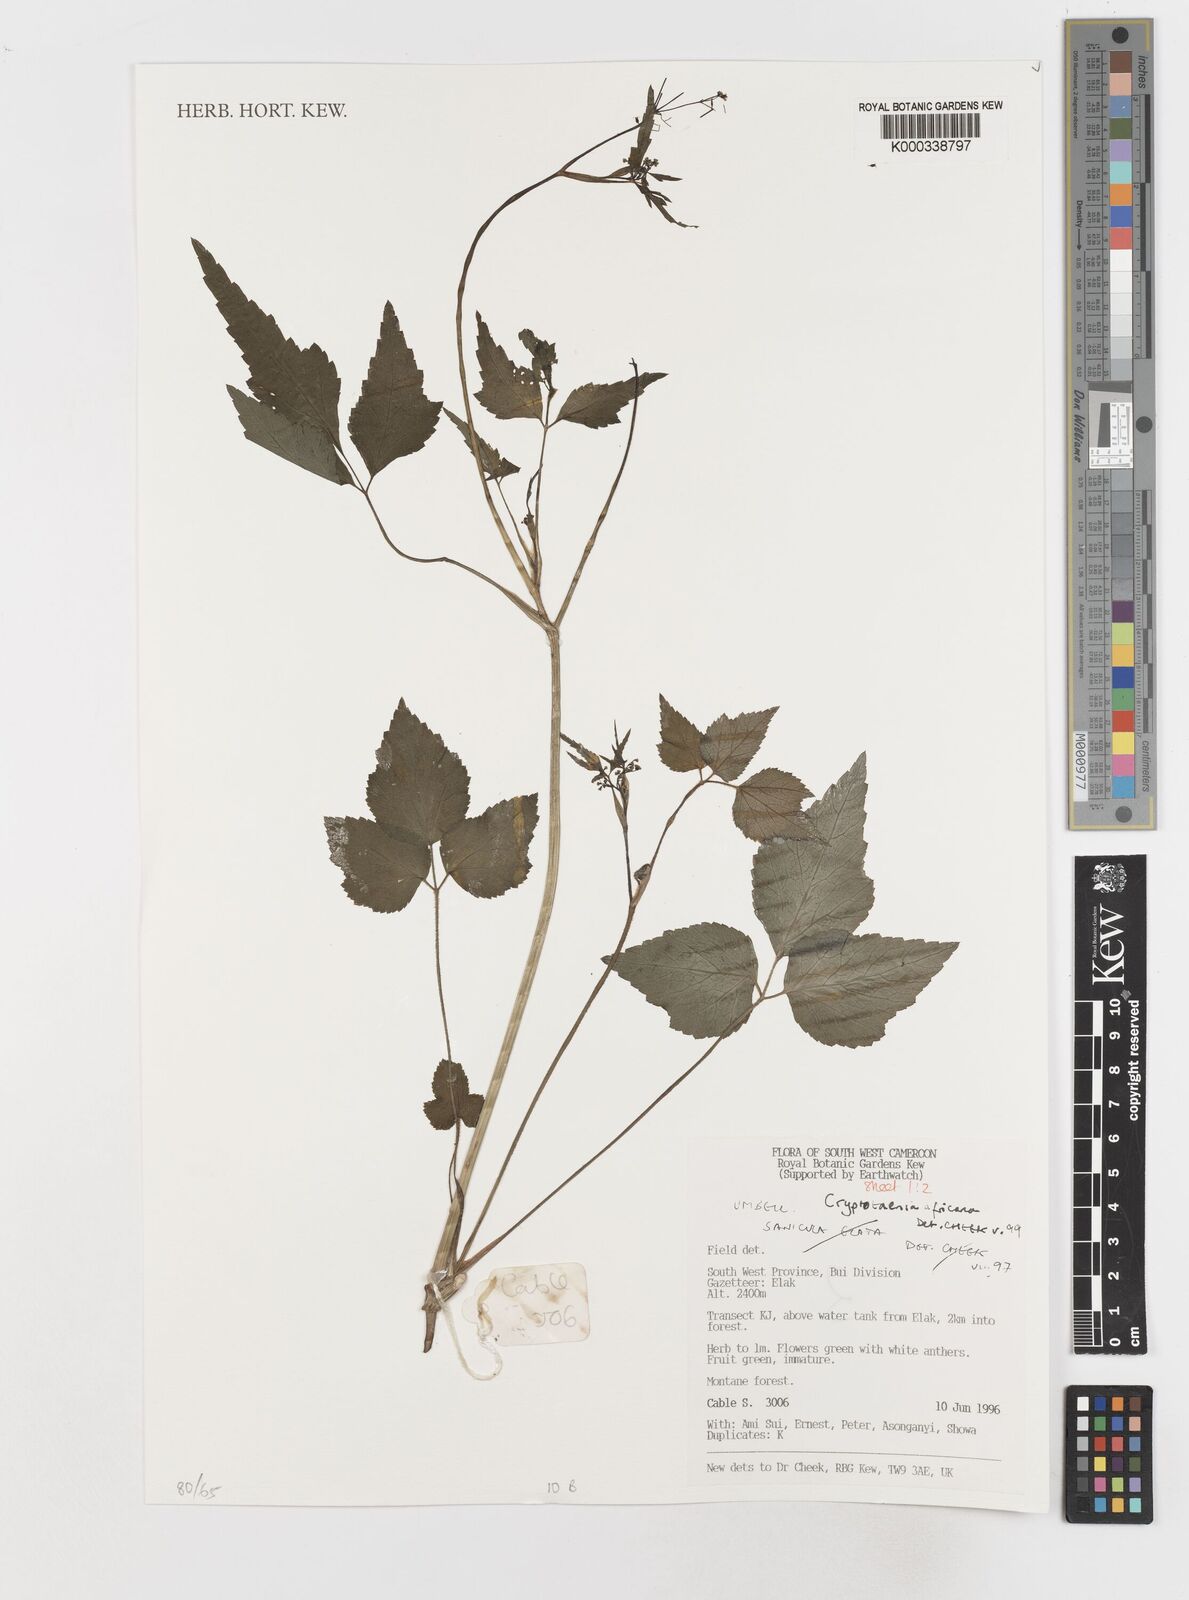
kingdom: Plantae
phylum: Tracheophyta
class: Magnoliopsida
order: Apiales
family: Apiaceae
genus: Cryptotaenia
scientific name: Cryptotaenia africana
